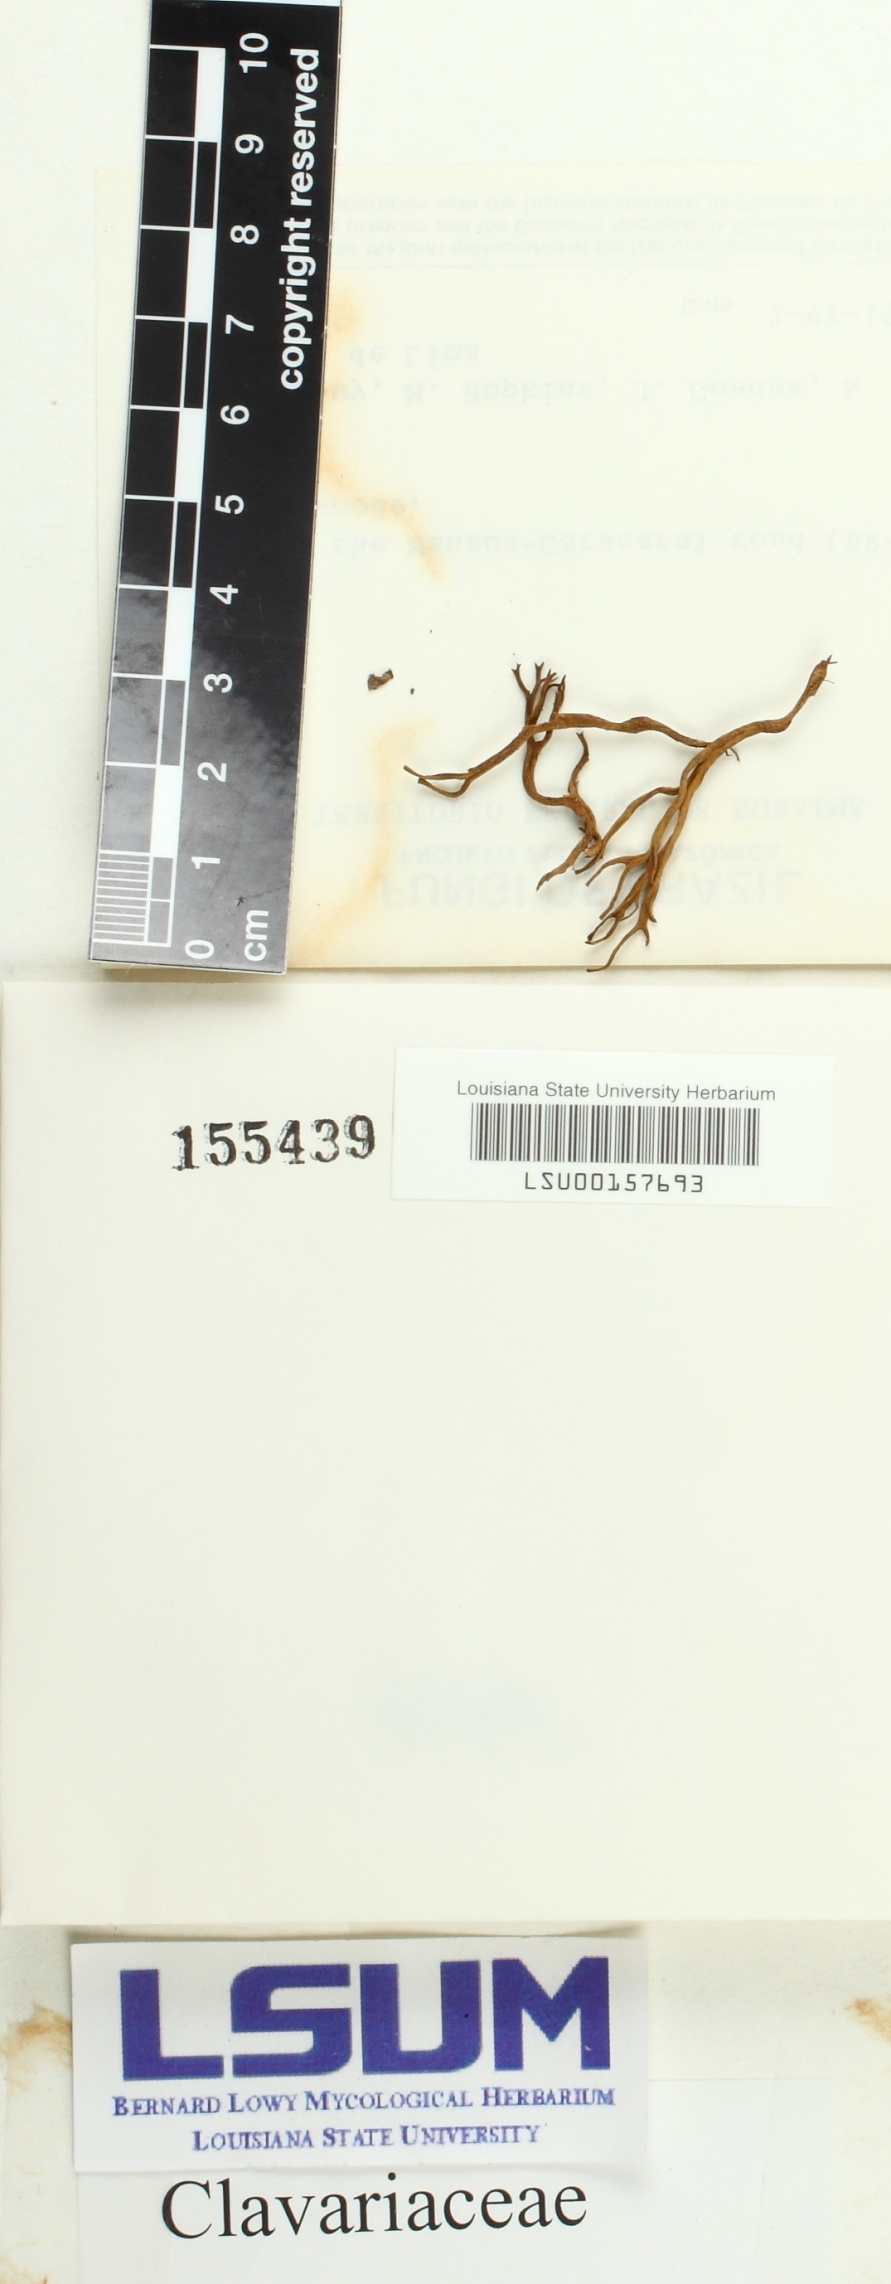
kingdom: Fungi
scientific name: Fungi
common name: Fungi
